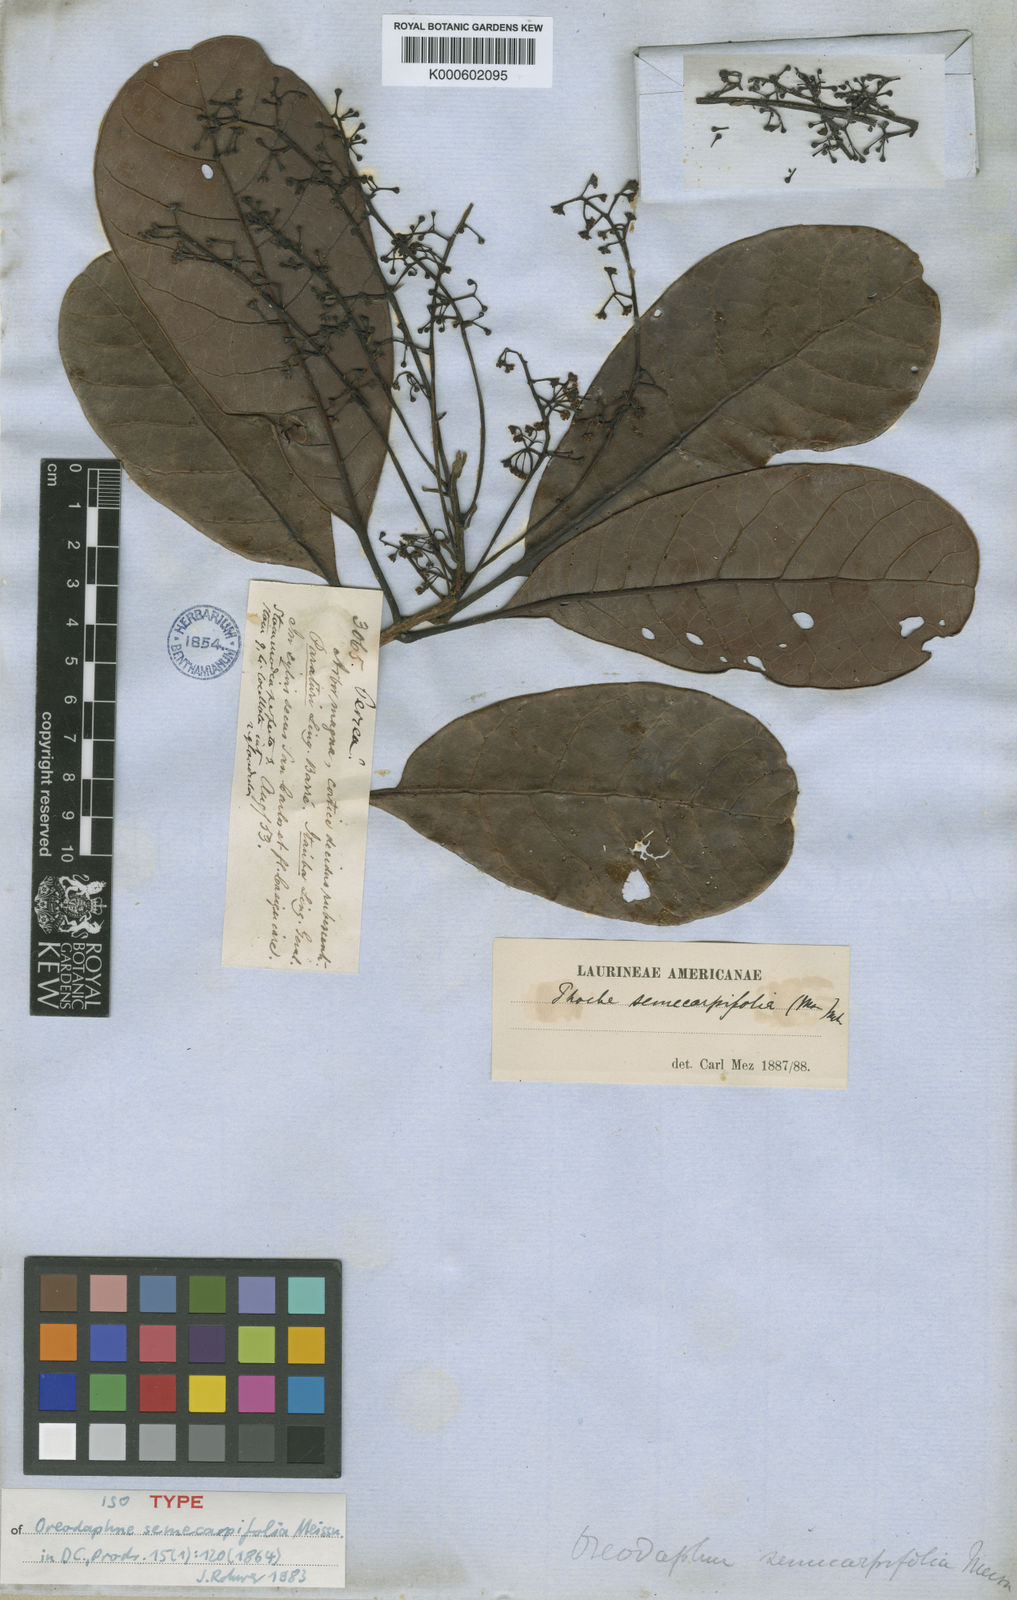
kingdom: Plantae
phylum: Tracheophyta
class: Magnoliopsida
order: Laurales
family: Lauraceae
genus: Persea
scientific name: Persea sprucei
